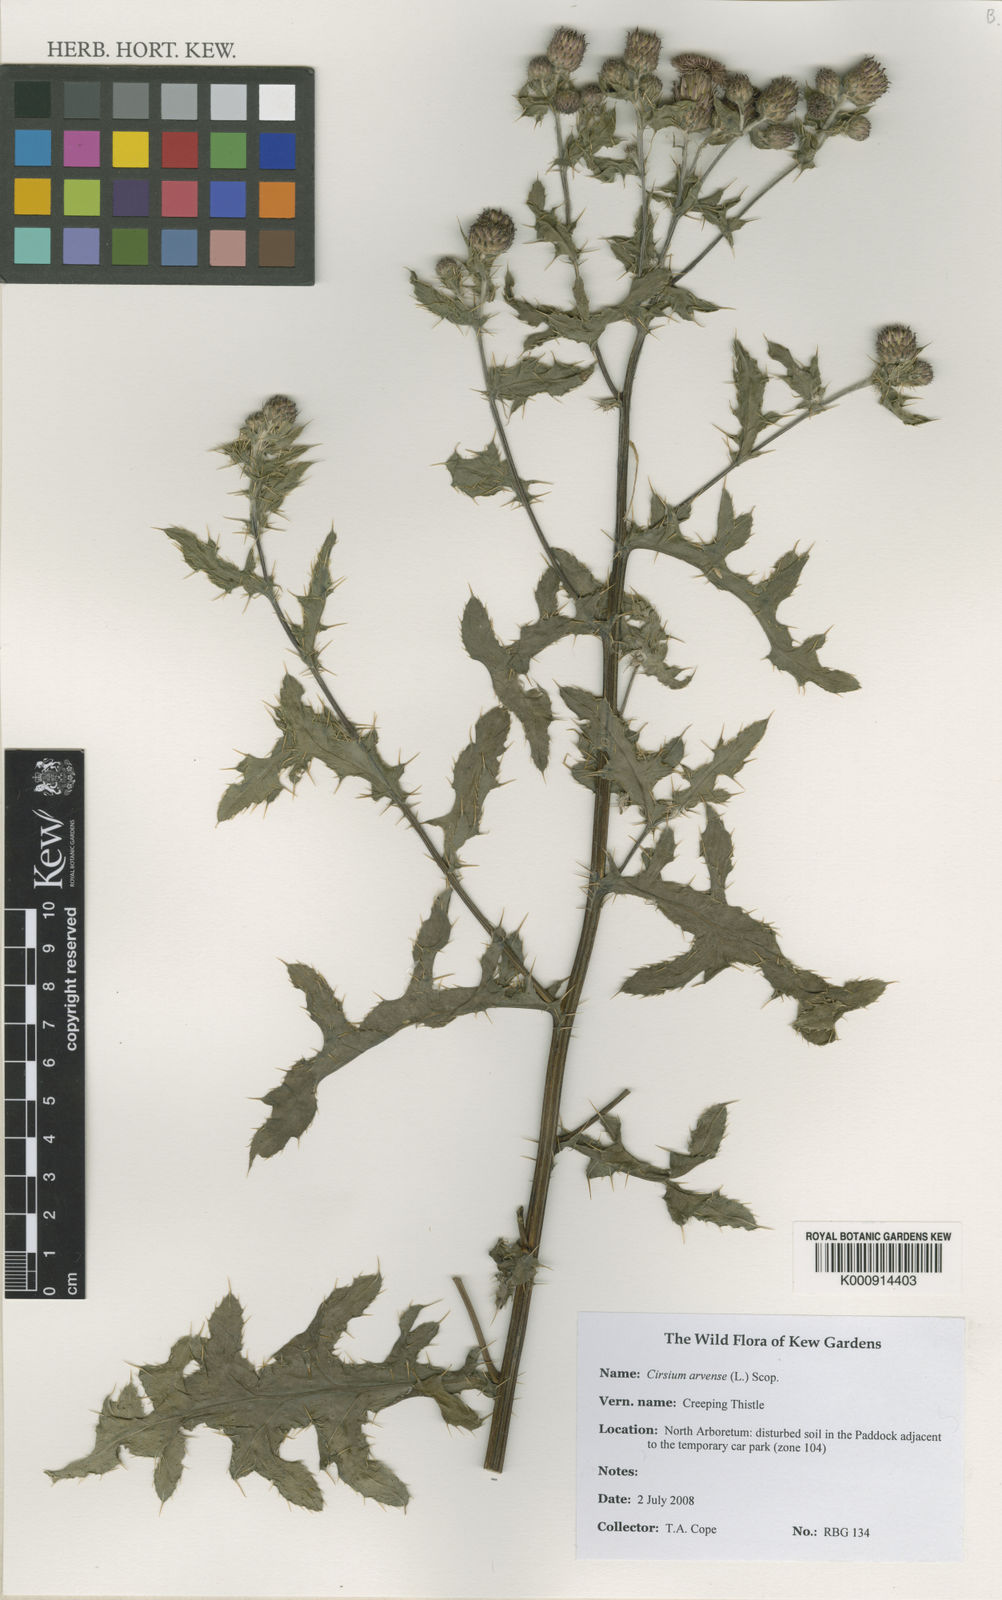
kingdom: Plantae
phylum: Tracheophyta
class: Magnoliopsida
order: Asterales
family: Asteraceae
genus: Cirsium
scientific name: Cirsium arvense
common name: Creeping thistle
